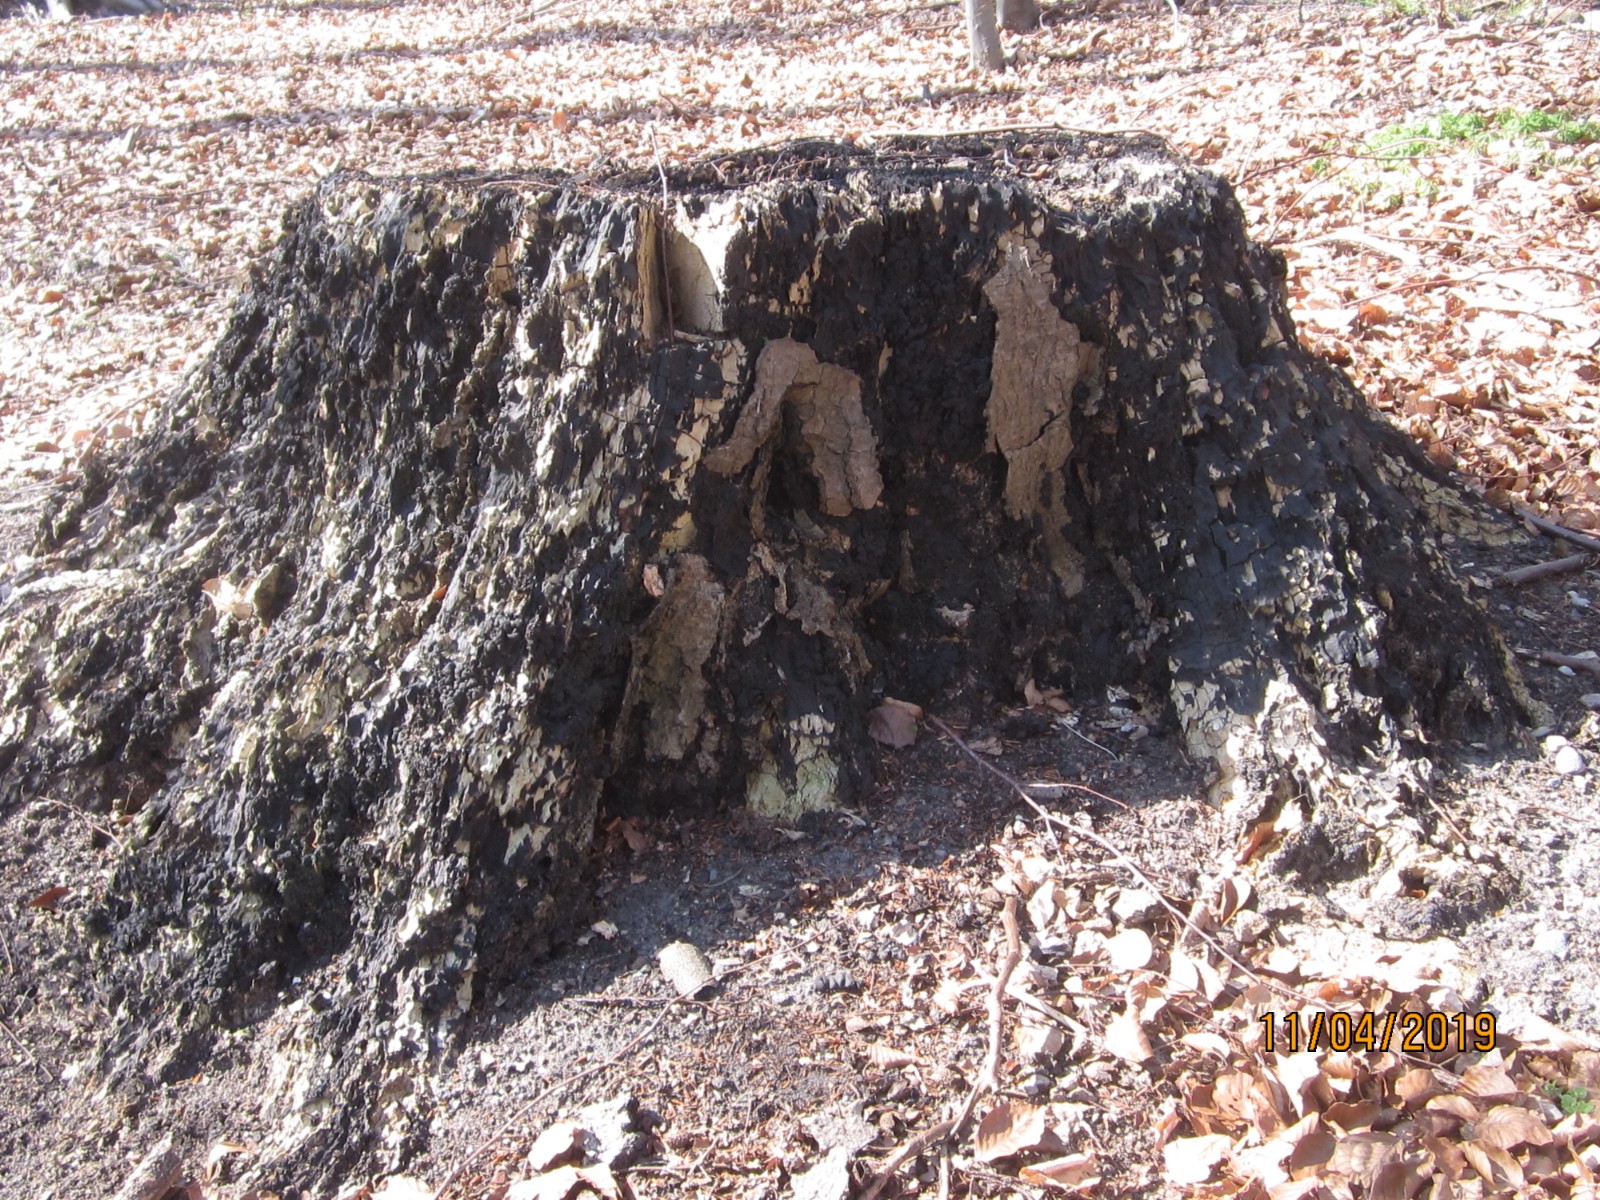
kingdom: Fungi
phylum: Ascomycota
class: Sordariomycetes
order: Xylariales
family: Xylariaceae
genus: Kretzschmaria
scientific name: Kretzschmaria deusta
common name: stor kulsvamp
